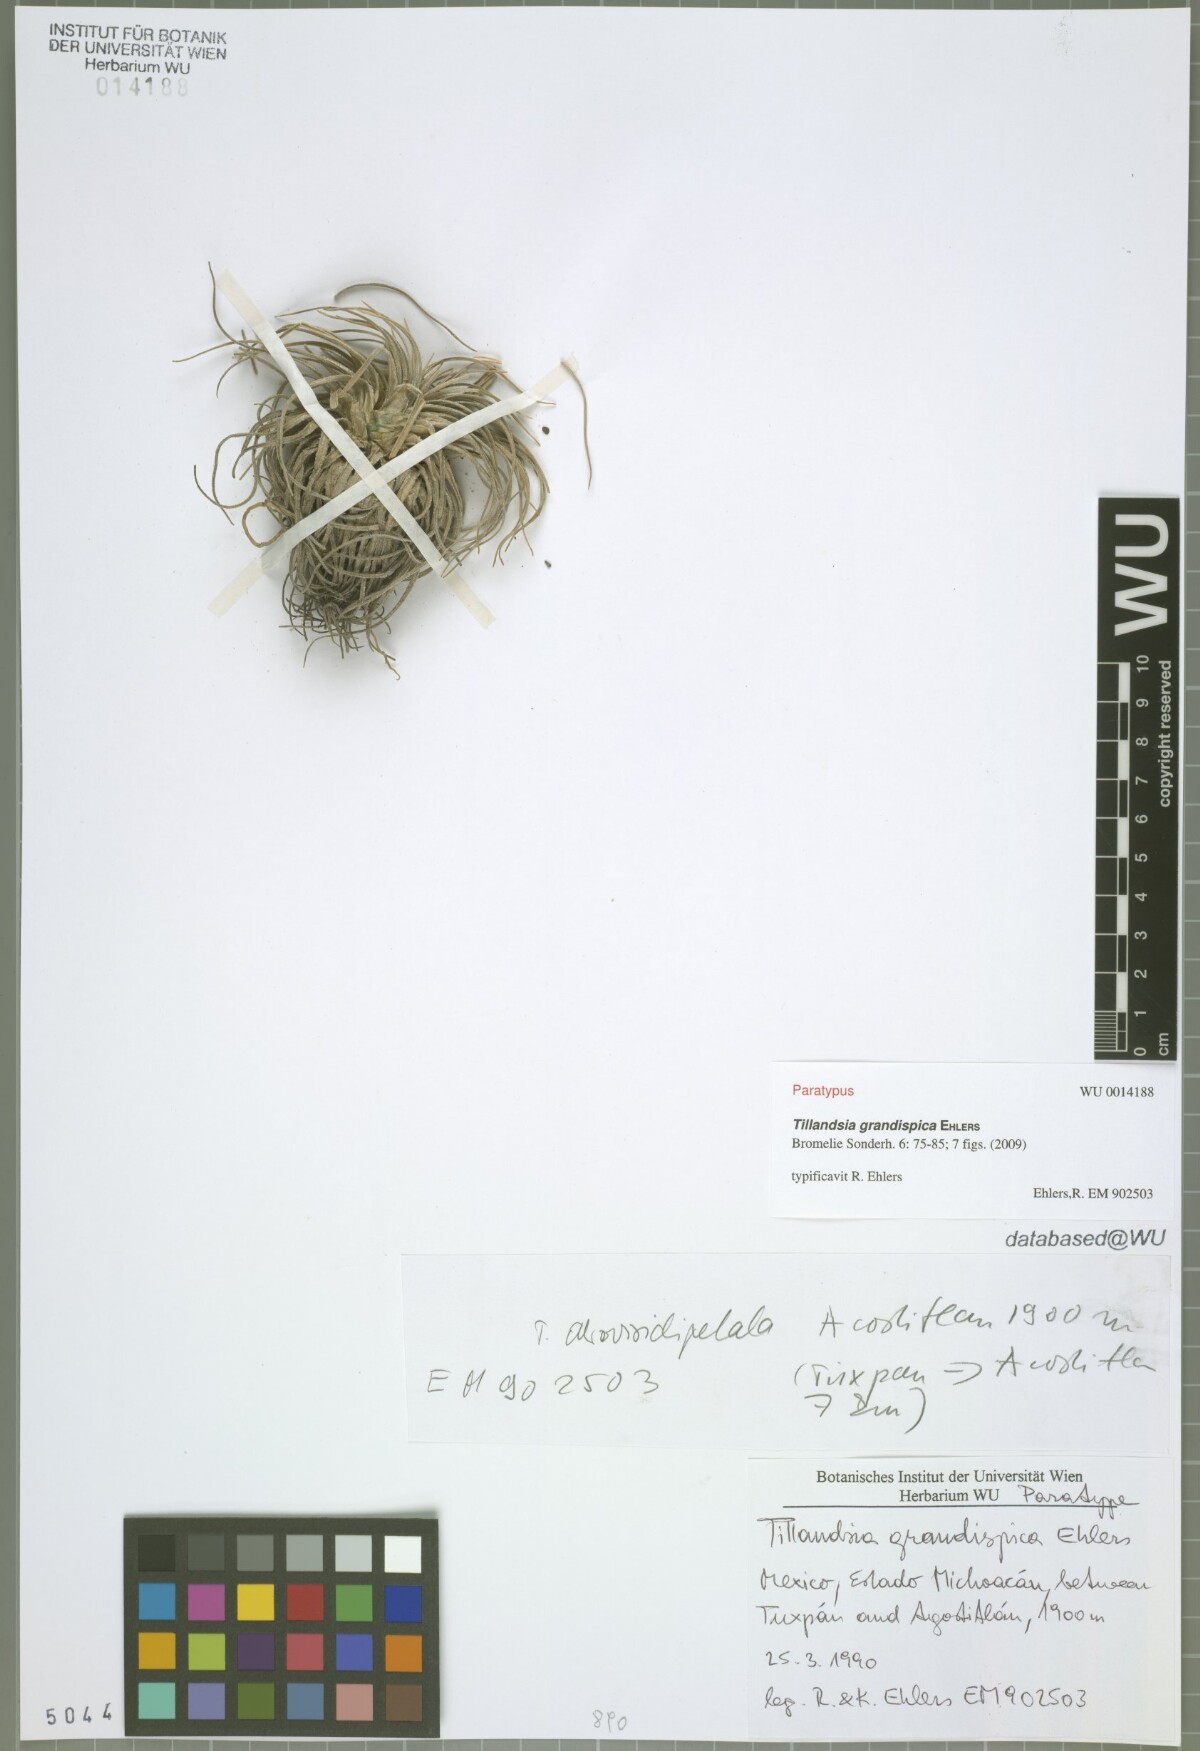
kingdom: Plantae
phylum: Tracheophyta
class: Liliopsida
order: Poales
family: Bromeliaceae
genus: Tillandsia
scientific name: Tillandsia grandispica
